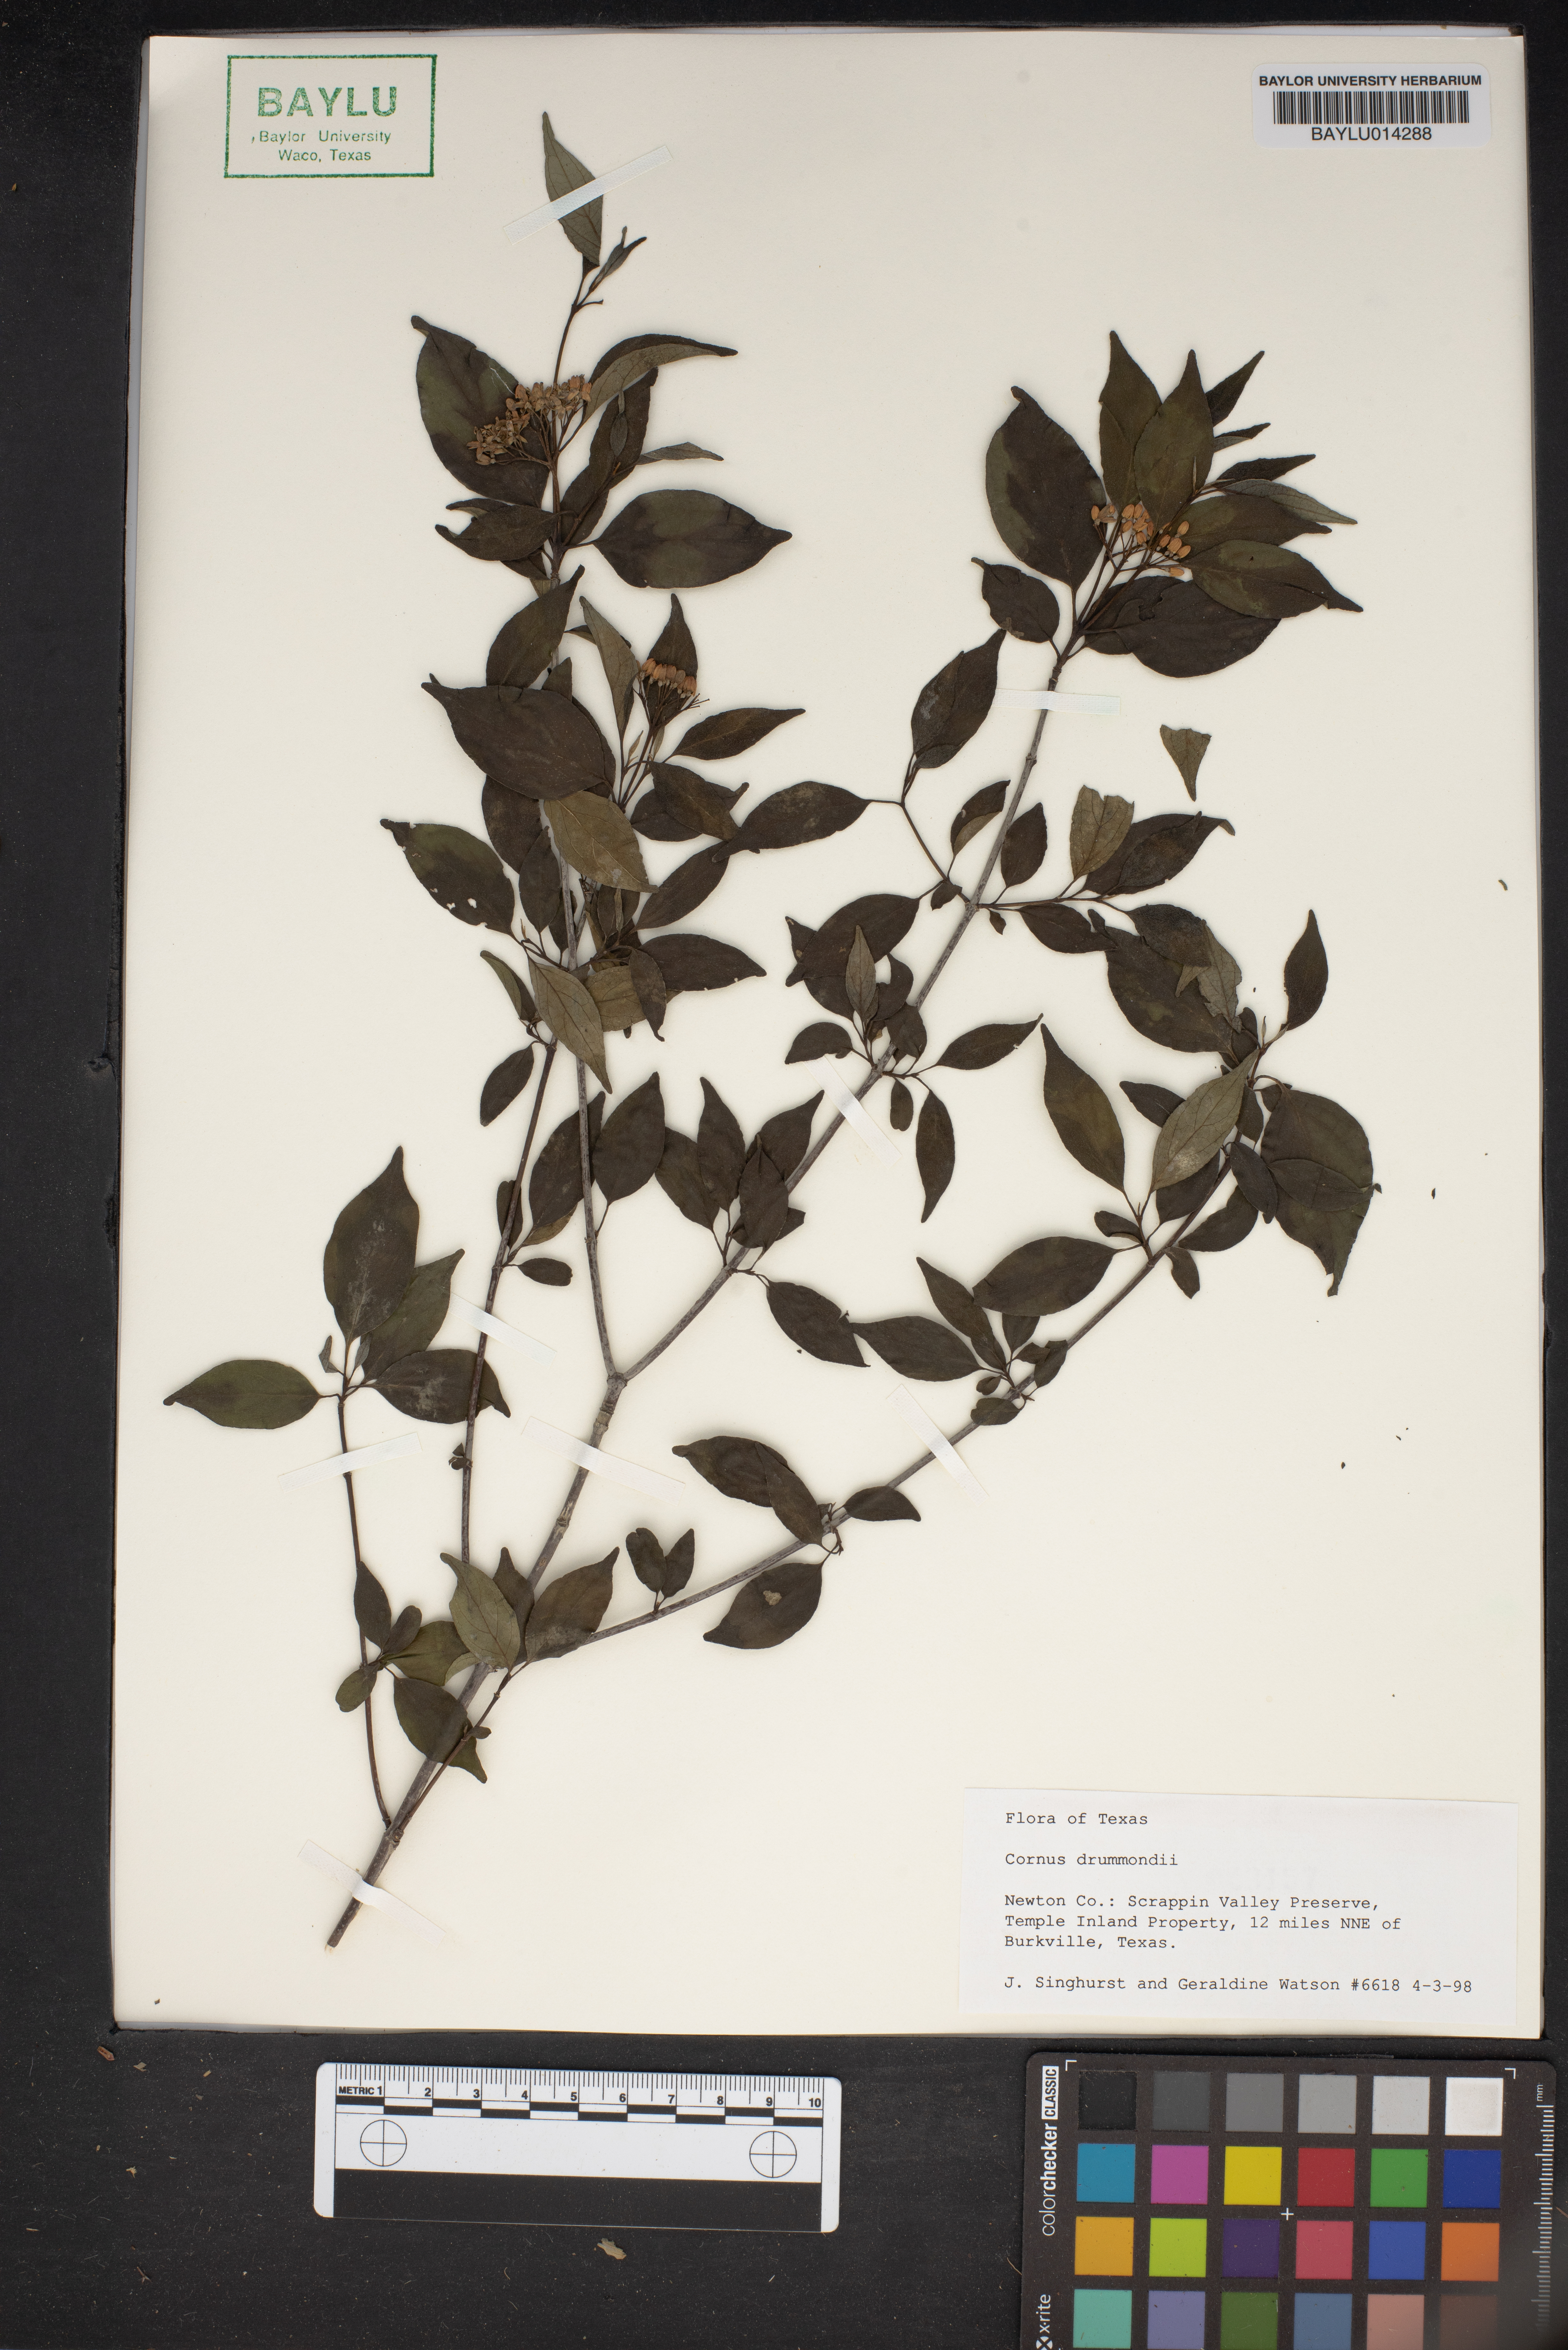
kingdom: Plantae
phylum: Tracheophyta
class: Magnoliopsida
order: Cornales
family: Cornaceae
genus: Cornus
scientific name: Cornus drummondii
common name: Rough-leaf dogwood
